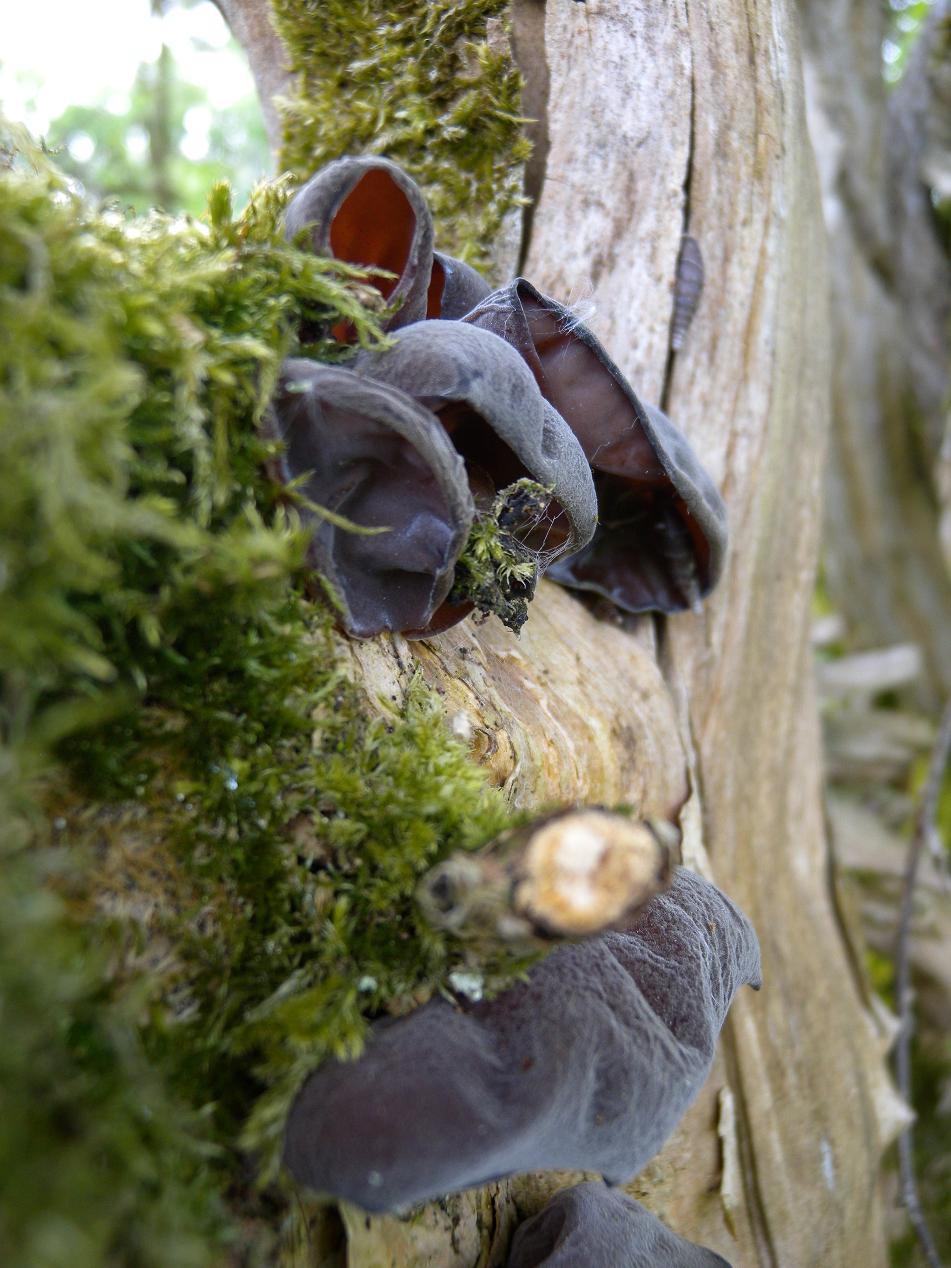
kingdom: Fungi
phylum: Basidiomycota
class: Agaricomycetes
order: Auriculariales
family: Auriculariaceae
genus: Auricularia
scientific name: Auricularia auricula-judae
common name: almindelig judasøre
